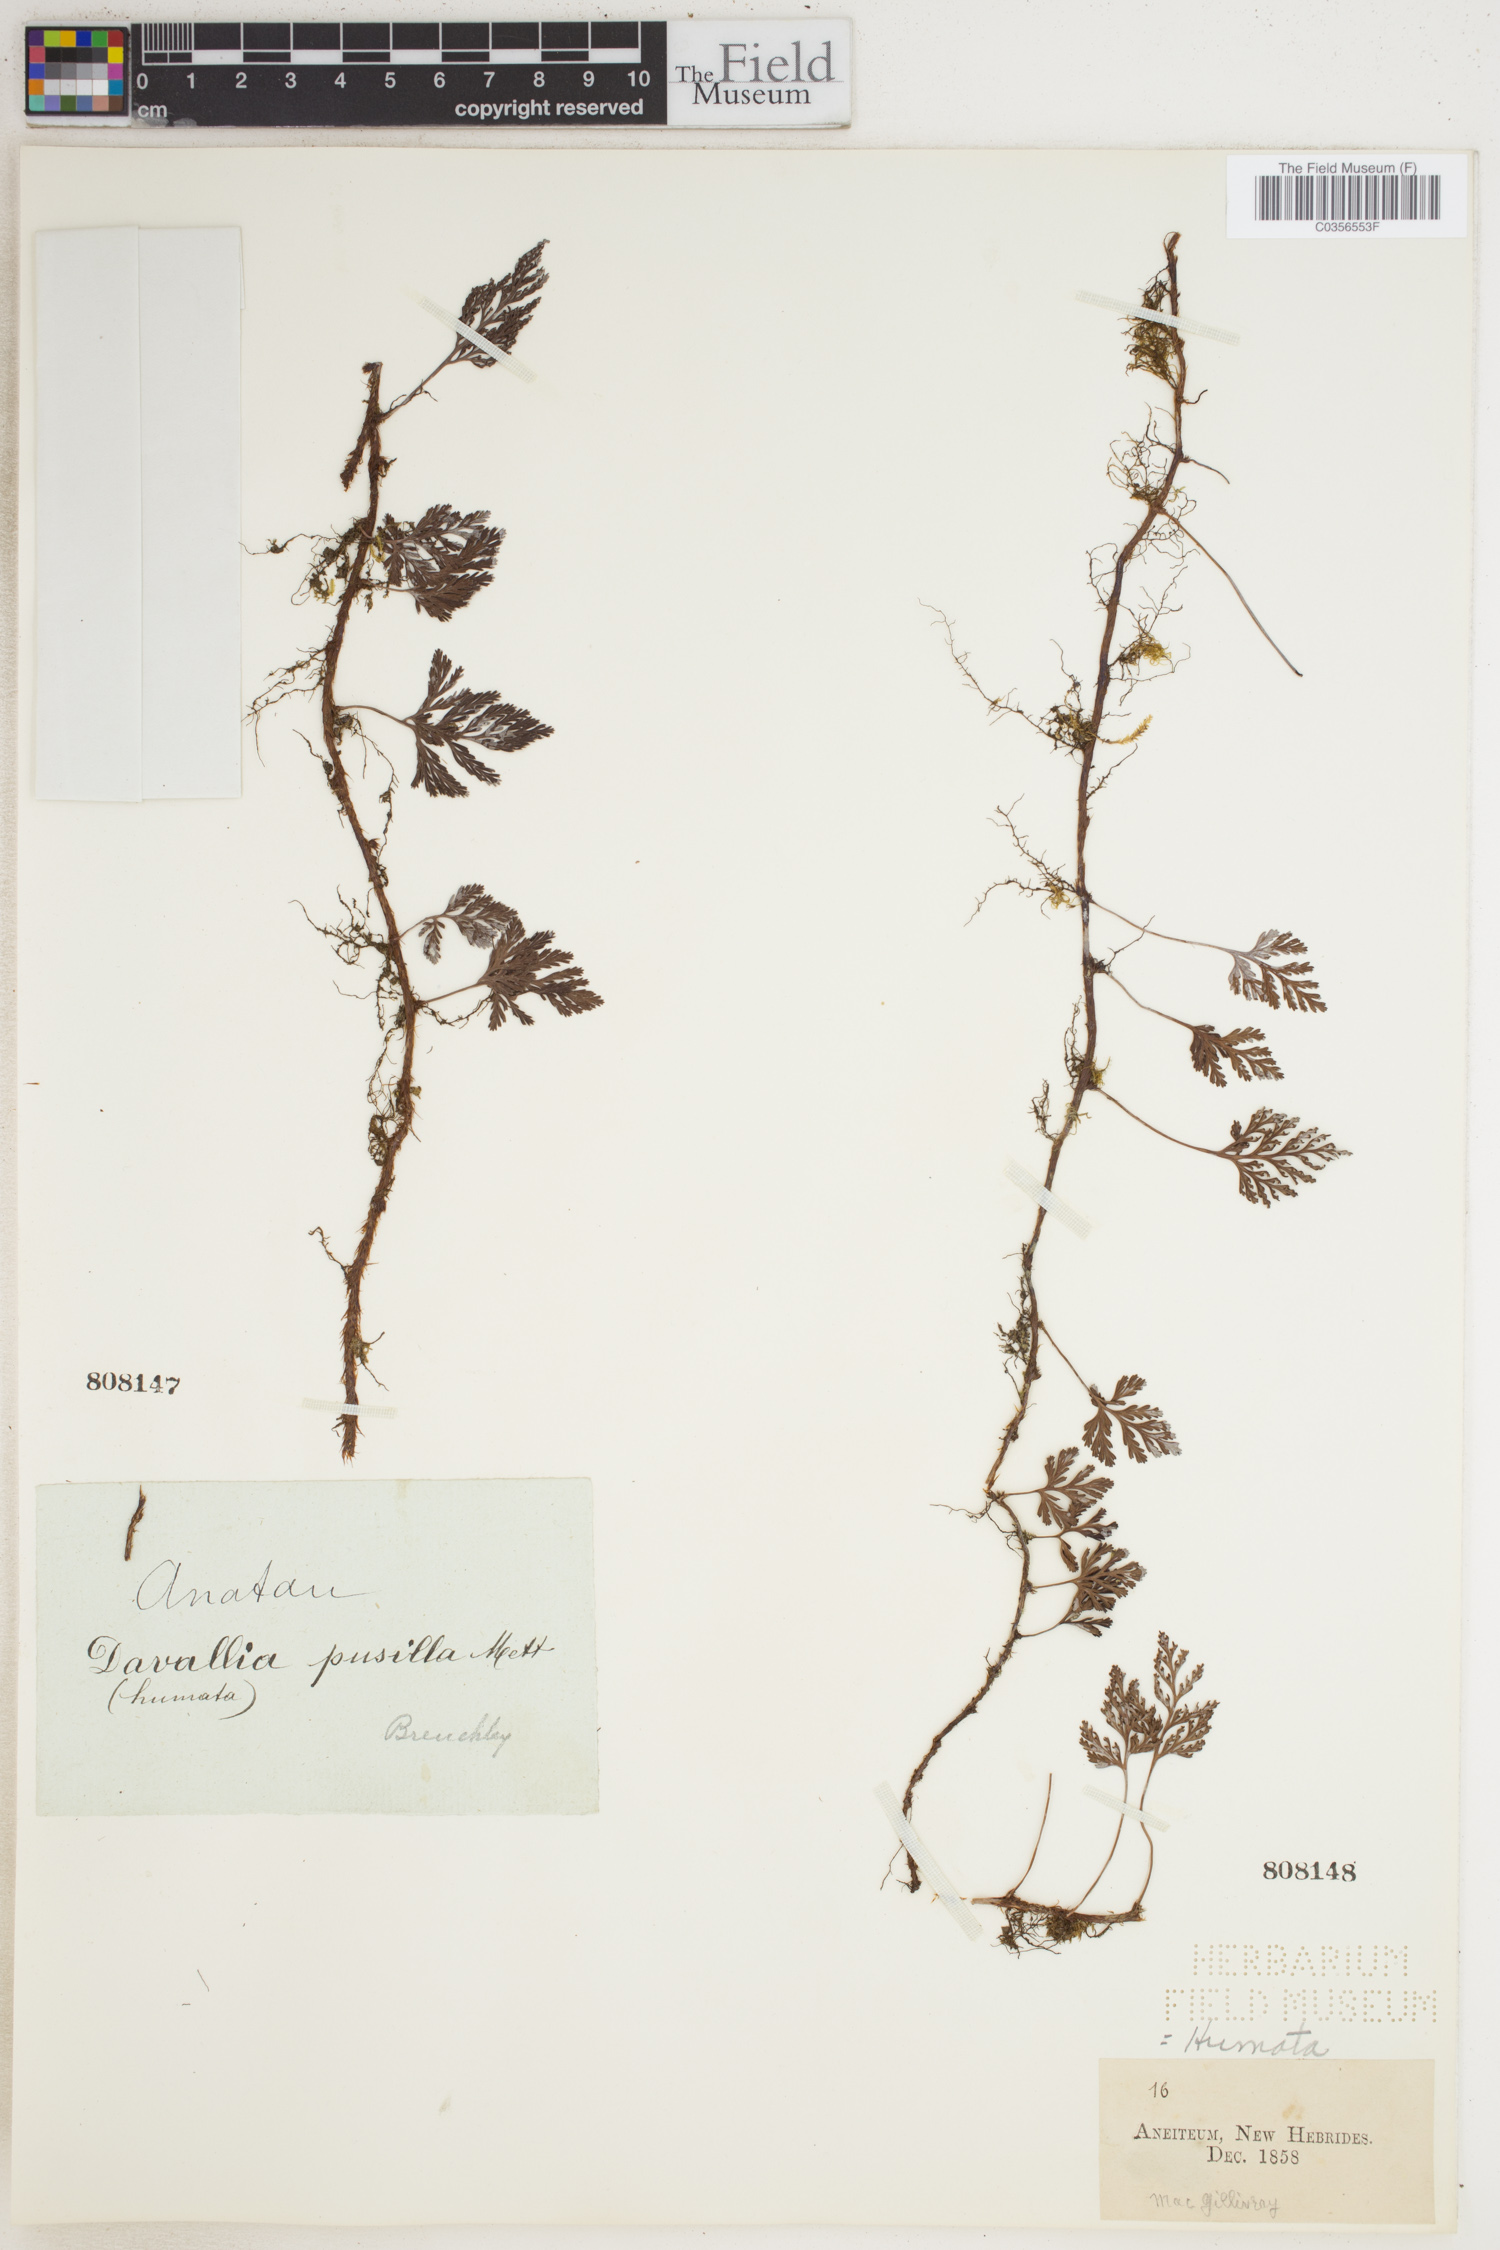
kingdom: Plantae
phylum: Tracheophyta
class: Polypodiopsida
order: Polypodiales
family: Davalliaceae
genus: Davallia
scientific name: Davallia
